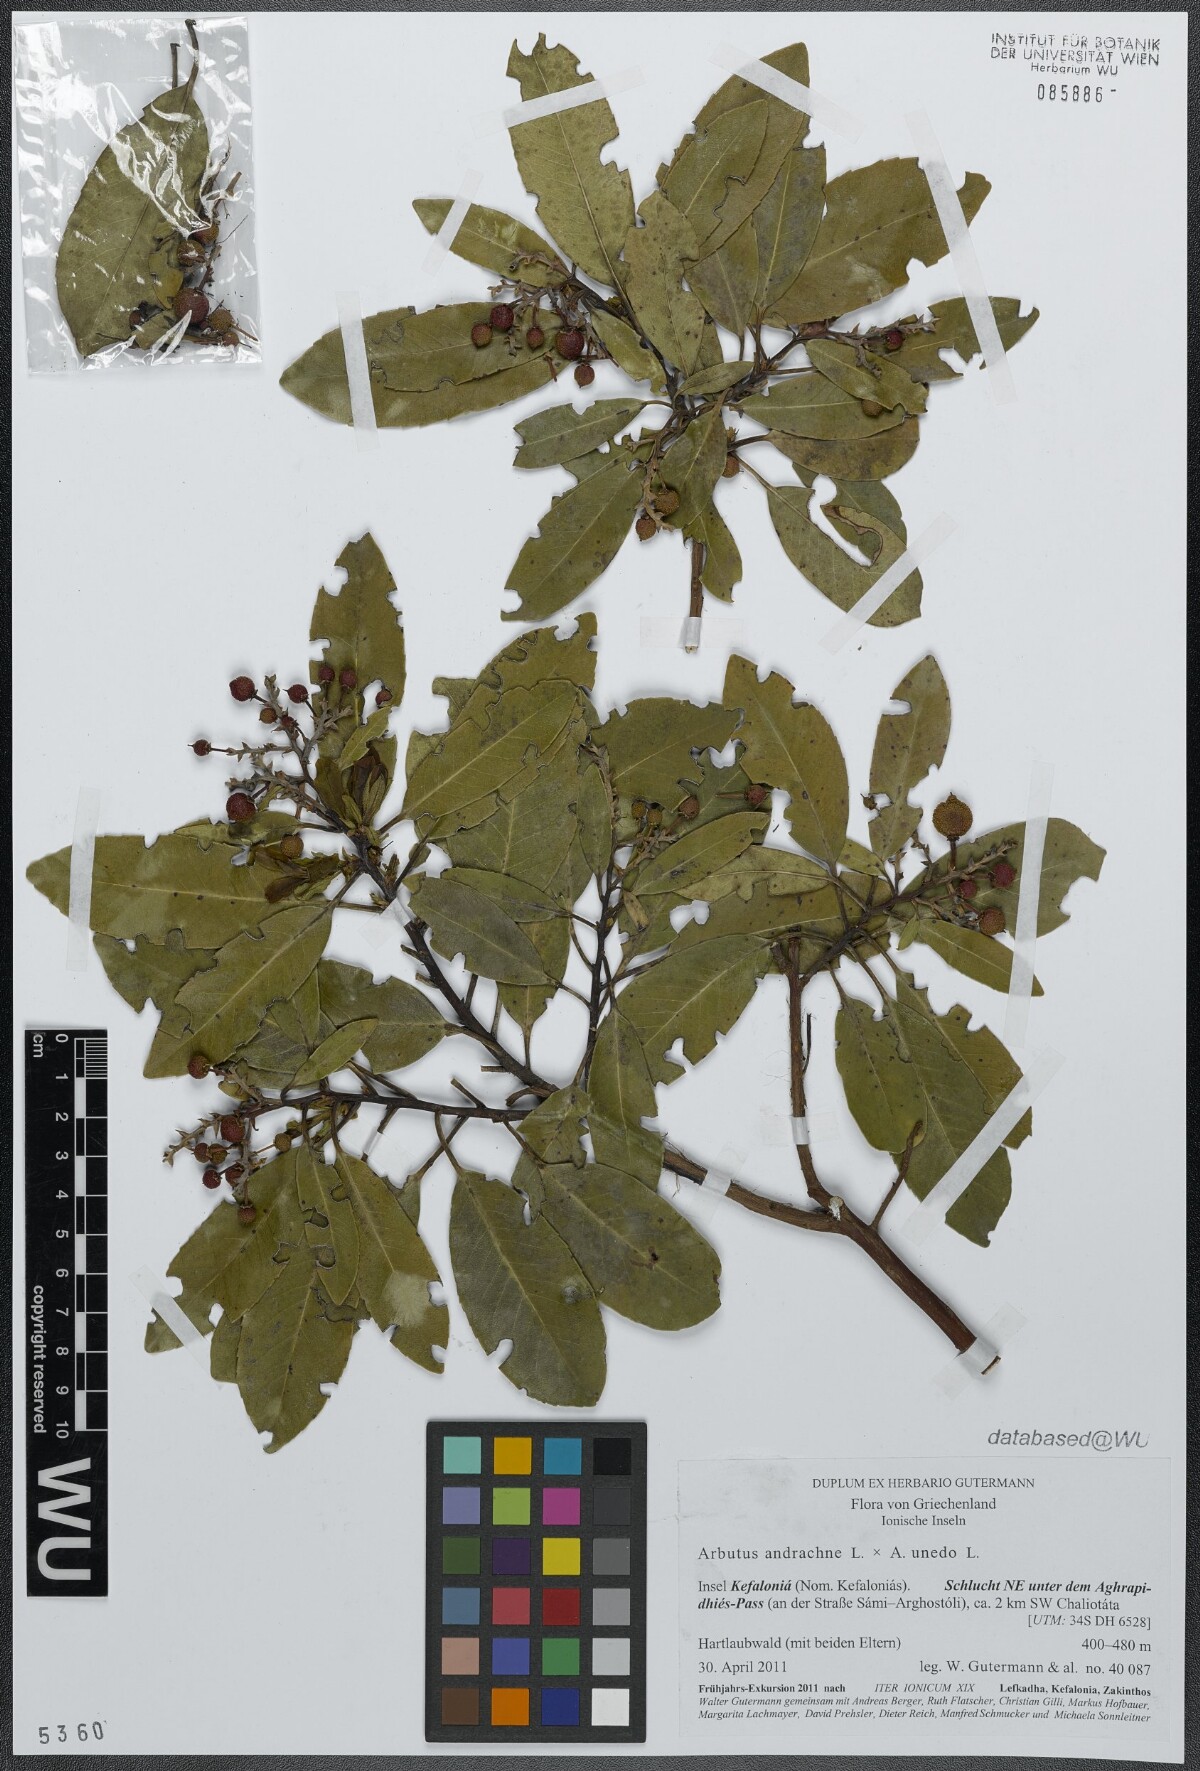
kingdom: Plantae
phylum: Tracheophyta
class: Magnoliopsida
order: Ericales
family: Ericaceae
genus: Arbutus
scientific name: Arbutus andrachnoides
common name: Hybrid strawberry-tree
